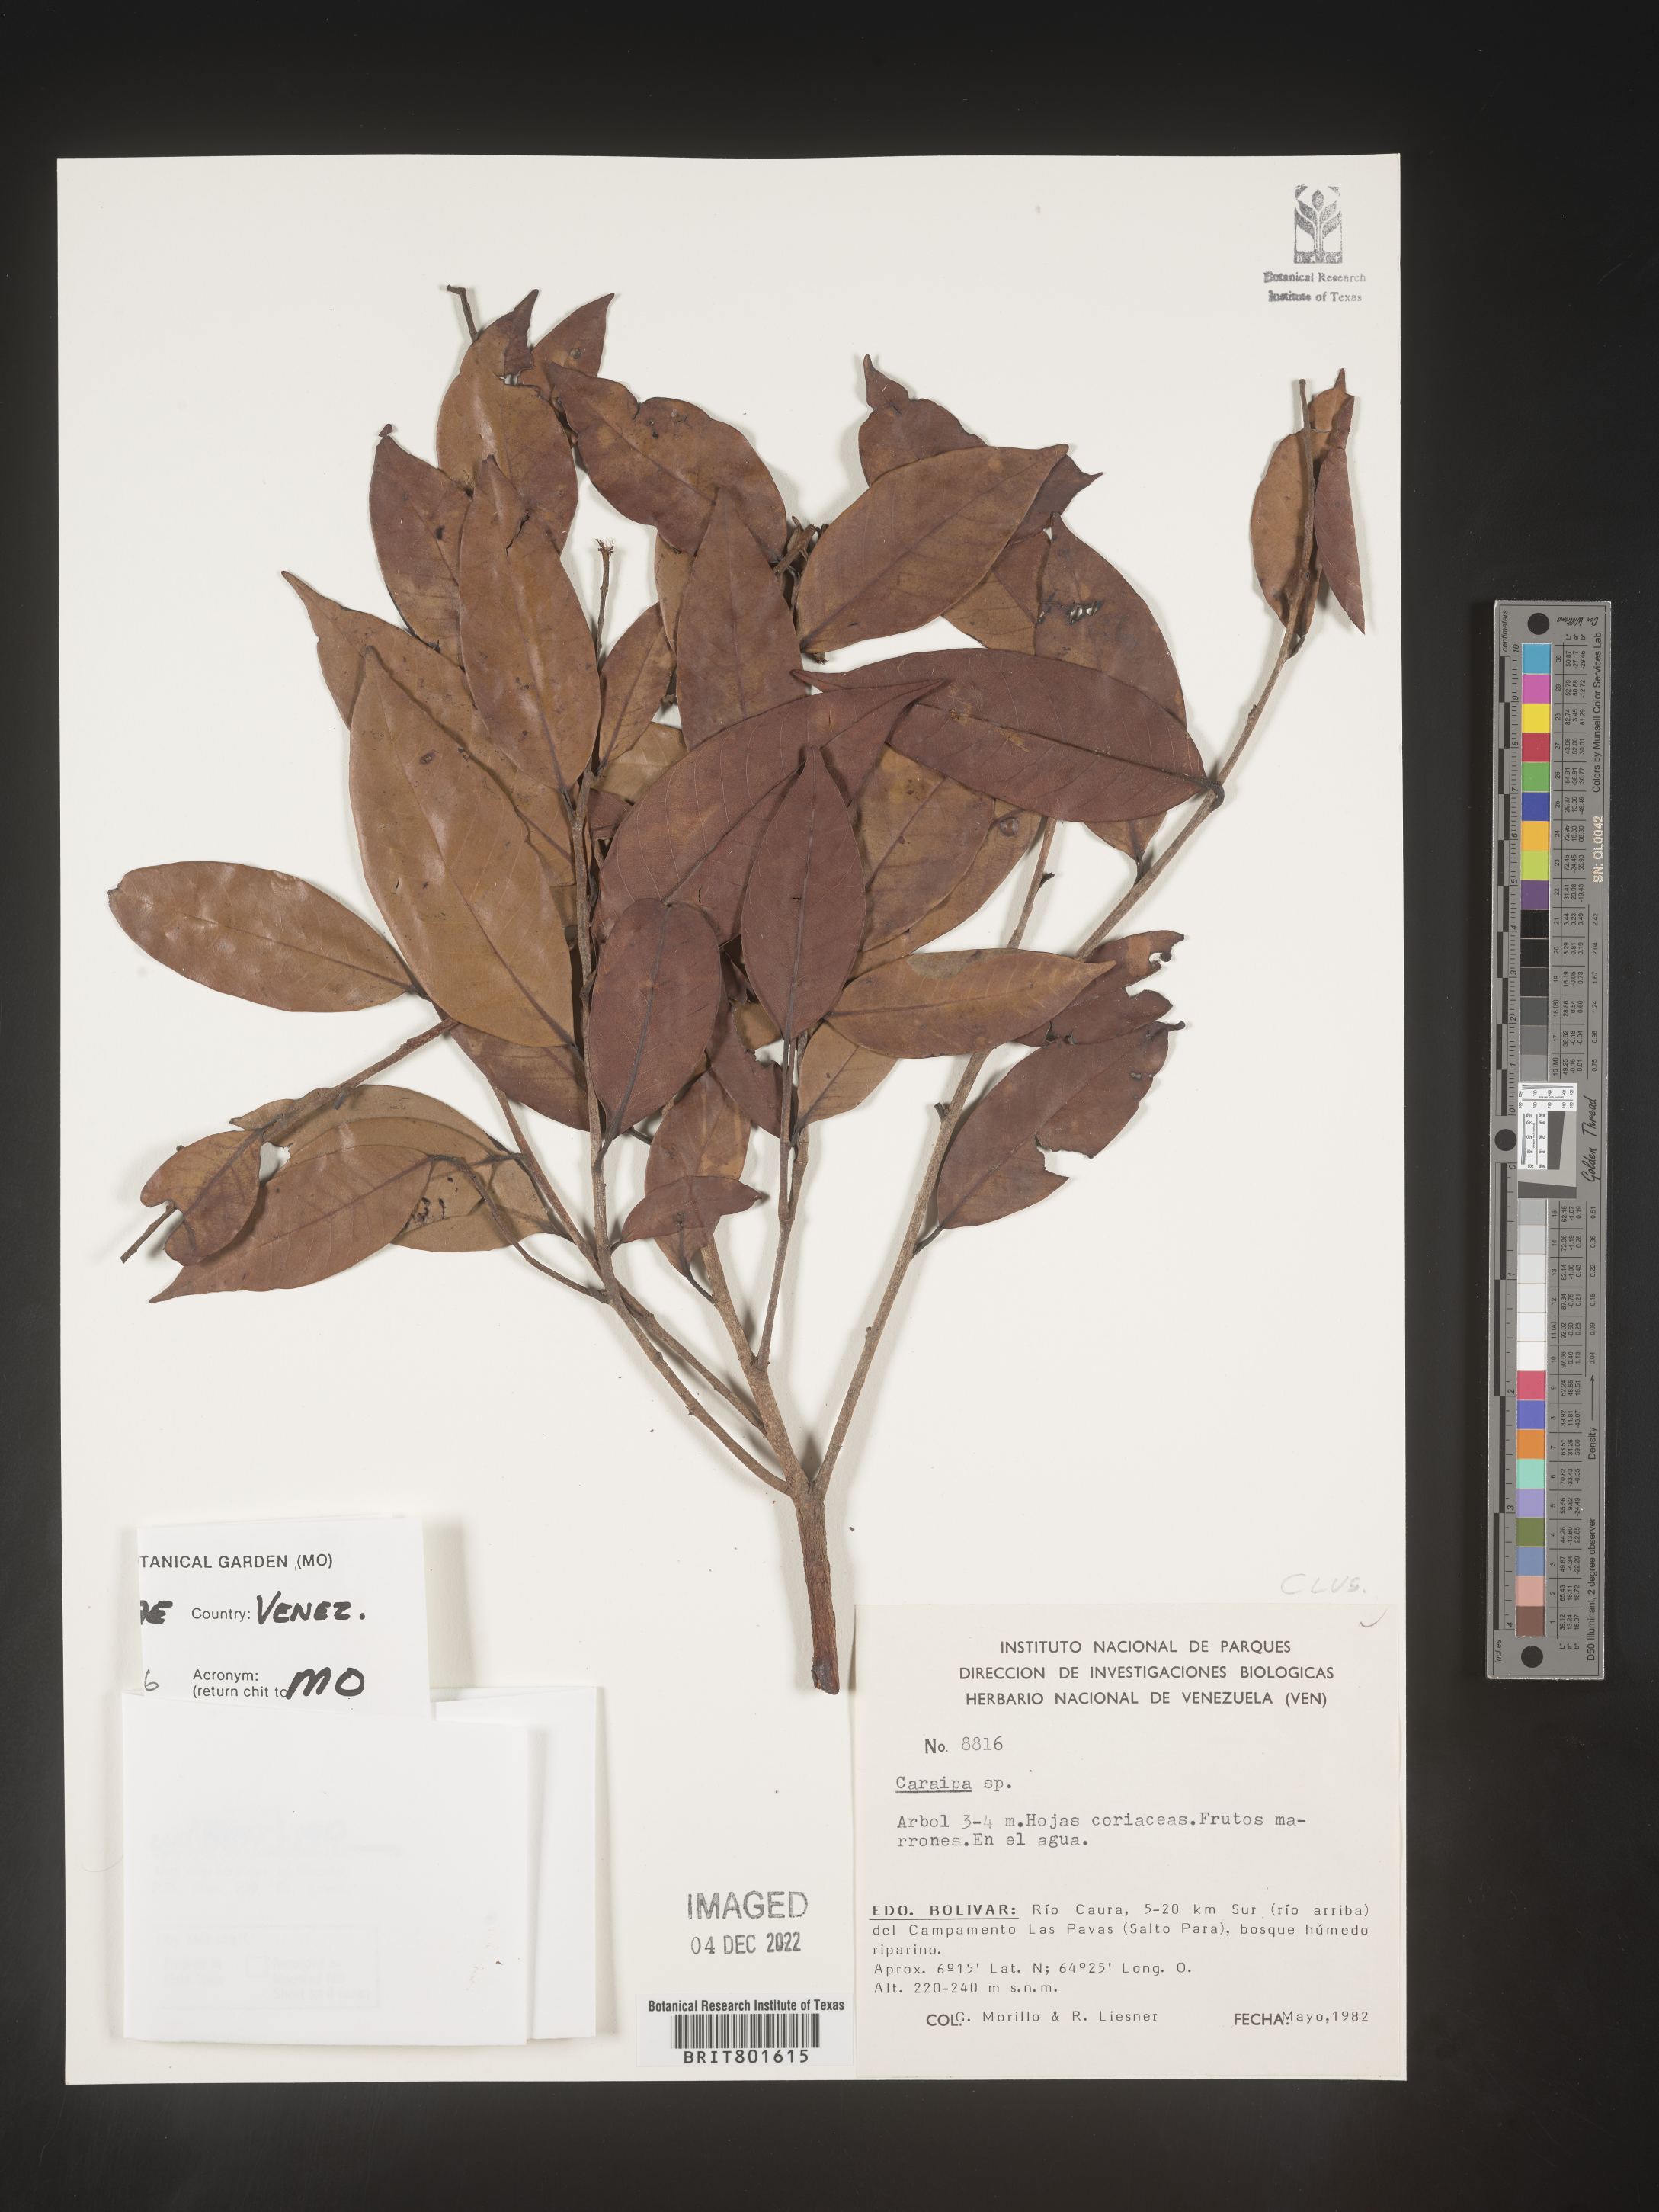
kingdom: Plantae
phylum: Tracheophyta
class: Magnoliopsida
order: Malpighiales
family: Calophyllaceae
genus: Caraipa
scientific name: Caraipa
